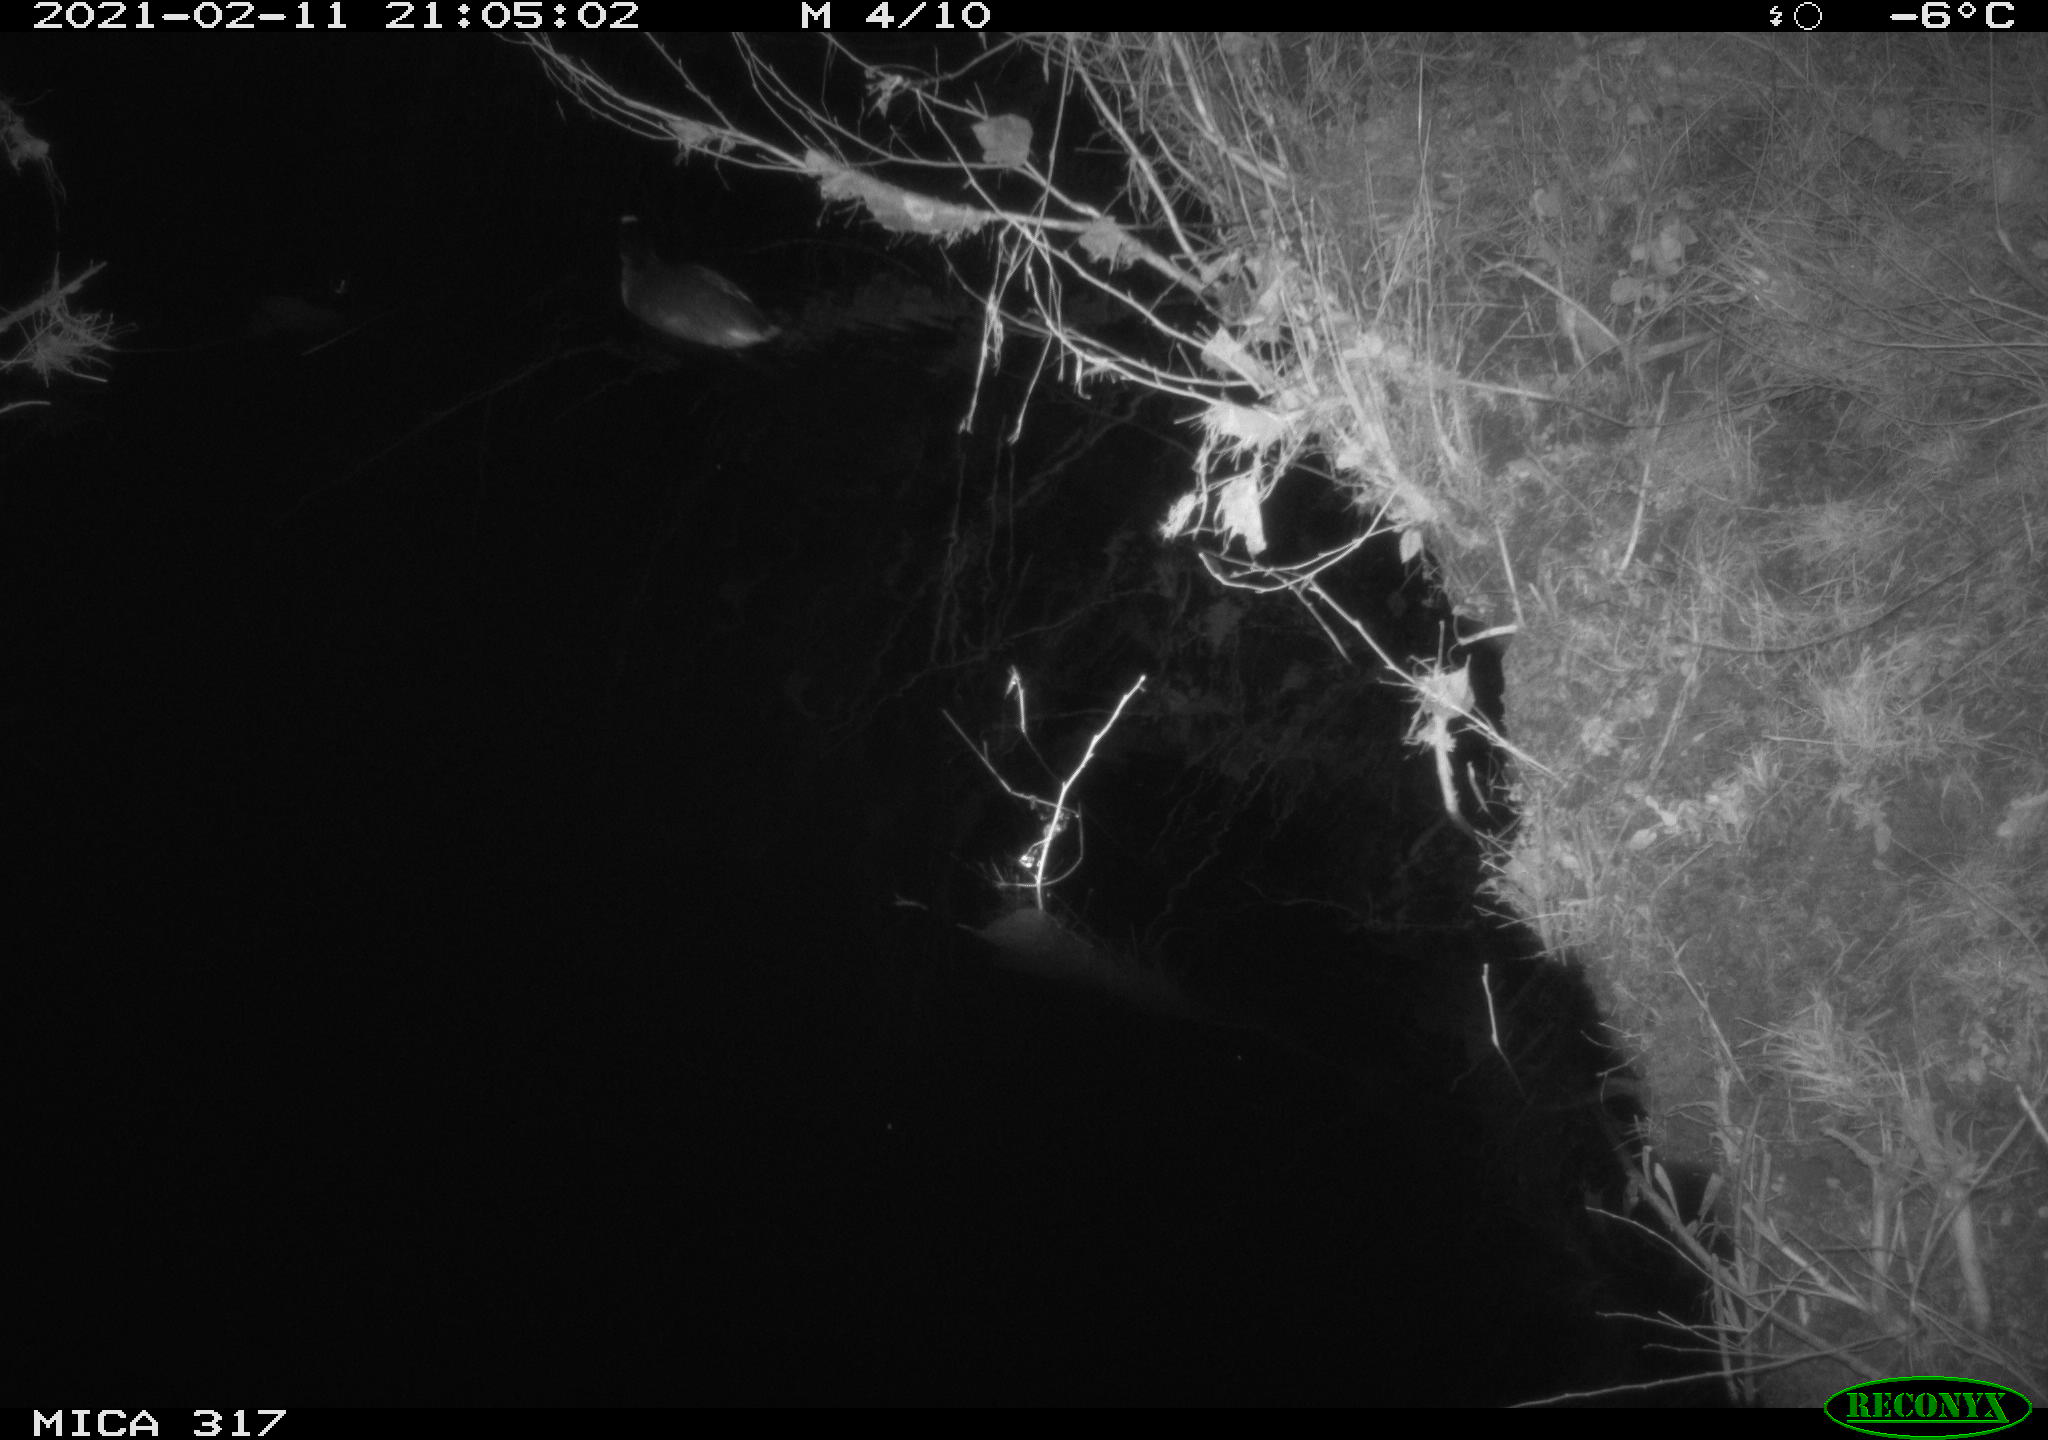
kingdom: Animalia
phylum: Chordata
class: Aves
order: Gruiformes
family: Rallidae
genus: Fulica
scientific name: Fulica atra
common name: Eurasian coot
